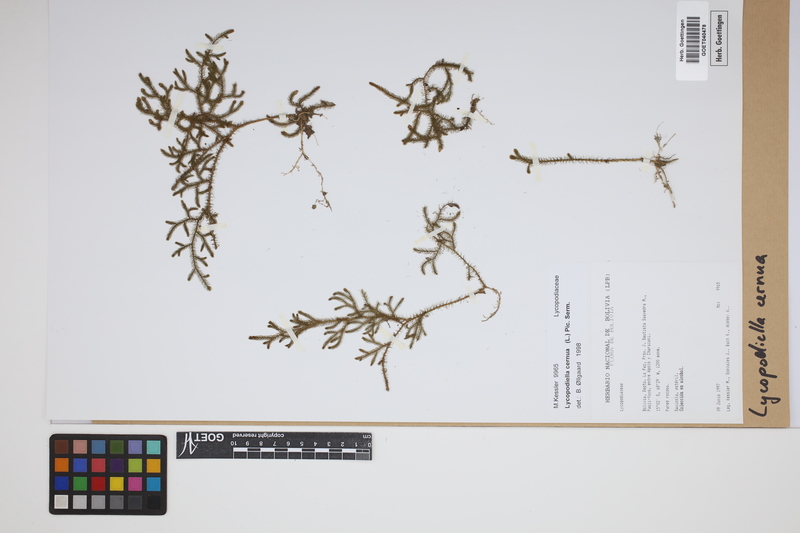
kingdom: Plantae
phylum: Tracheophyta
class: Lycopodiopsida
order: Lycopodiales
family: Lycopodiaceae
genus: Palhinhaea
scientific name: Palhinhaea cernua
